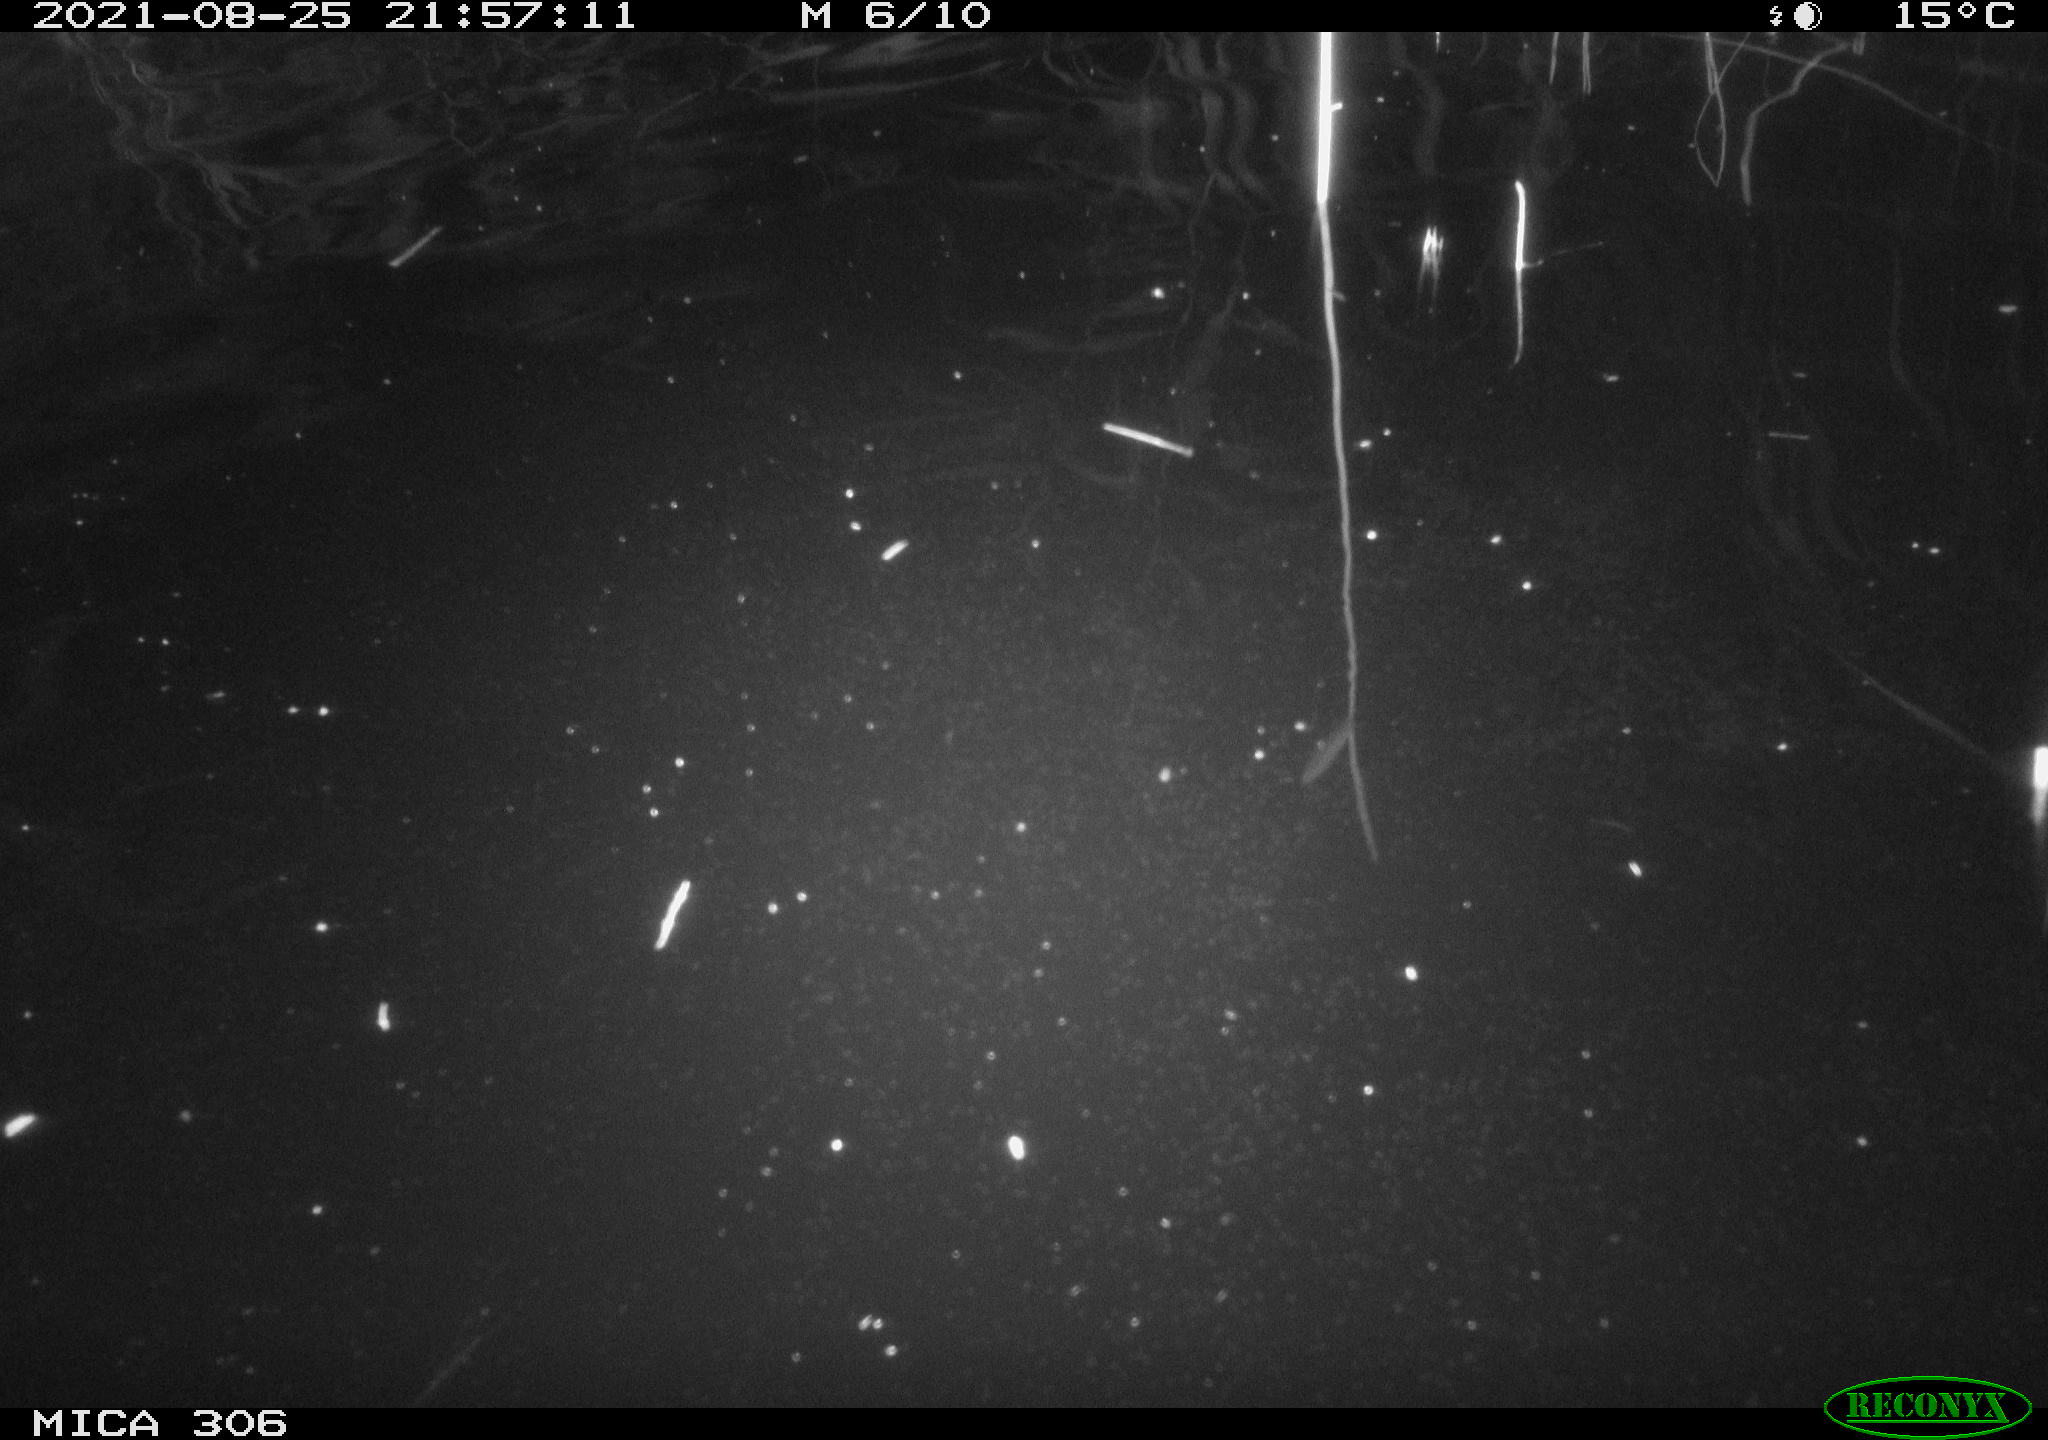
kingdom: Animalia
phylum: Chordata
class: Mammalia
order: Rodentia
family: Muridae
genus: Rattus
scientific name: Rattus norvegicus
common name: Brown rat
